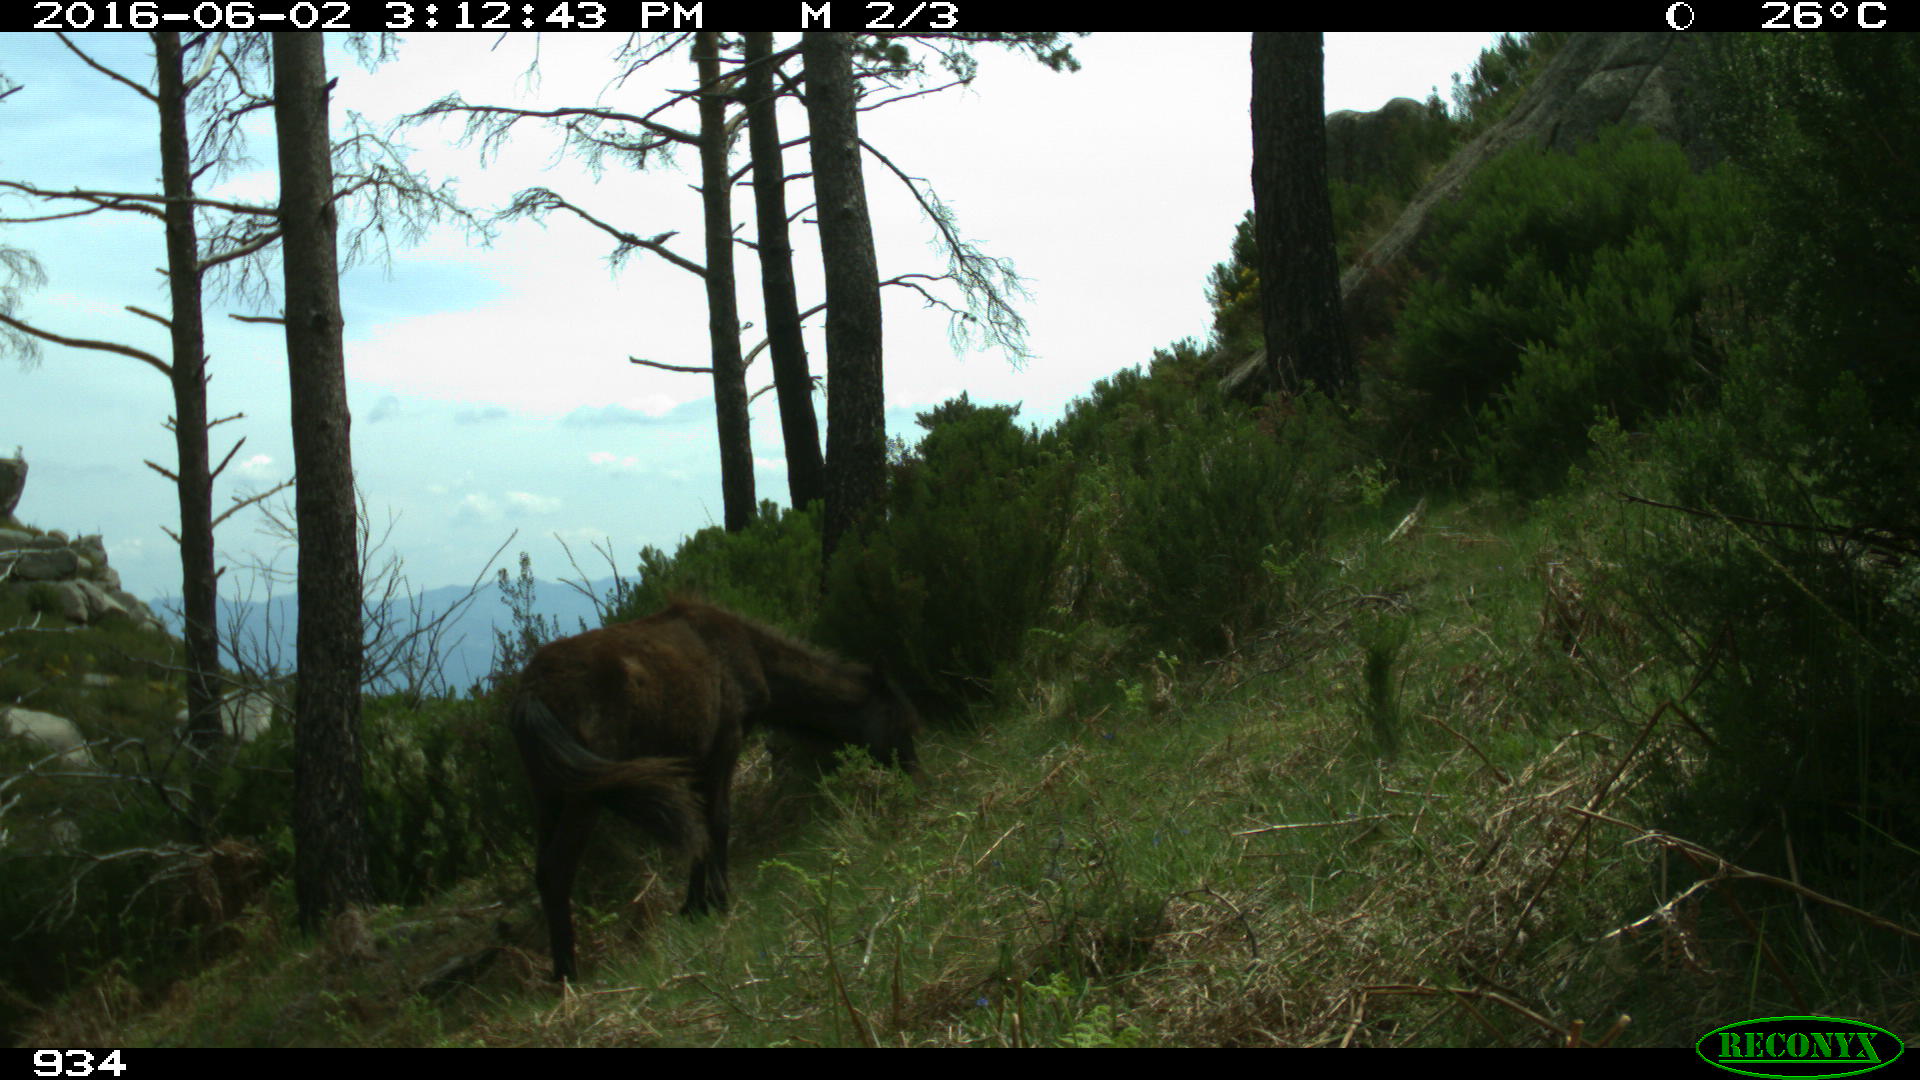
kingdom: Animalia
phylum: Chordata
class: Mammalia
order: Perissodactyla
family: Equidae
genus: Equus
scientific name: Equus caballus
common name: Horse
